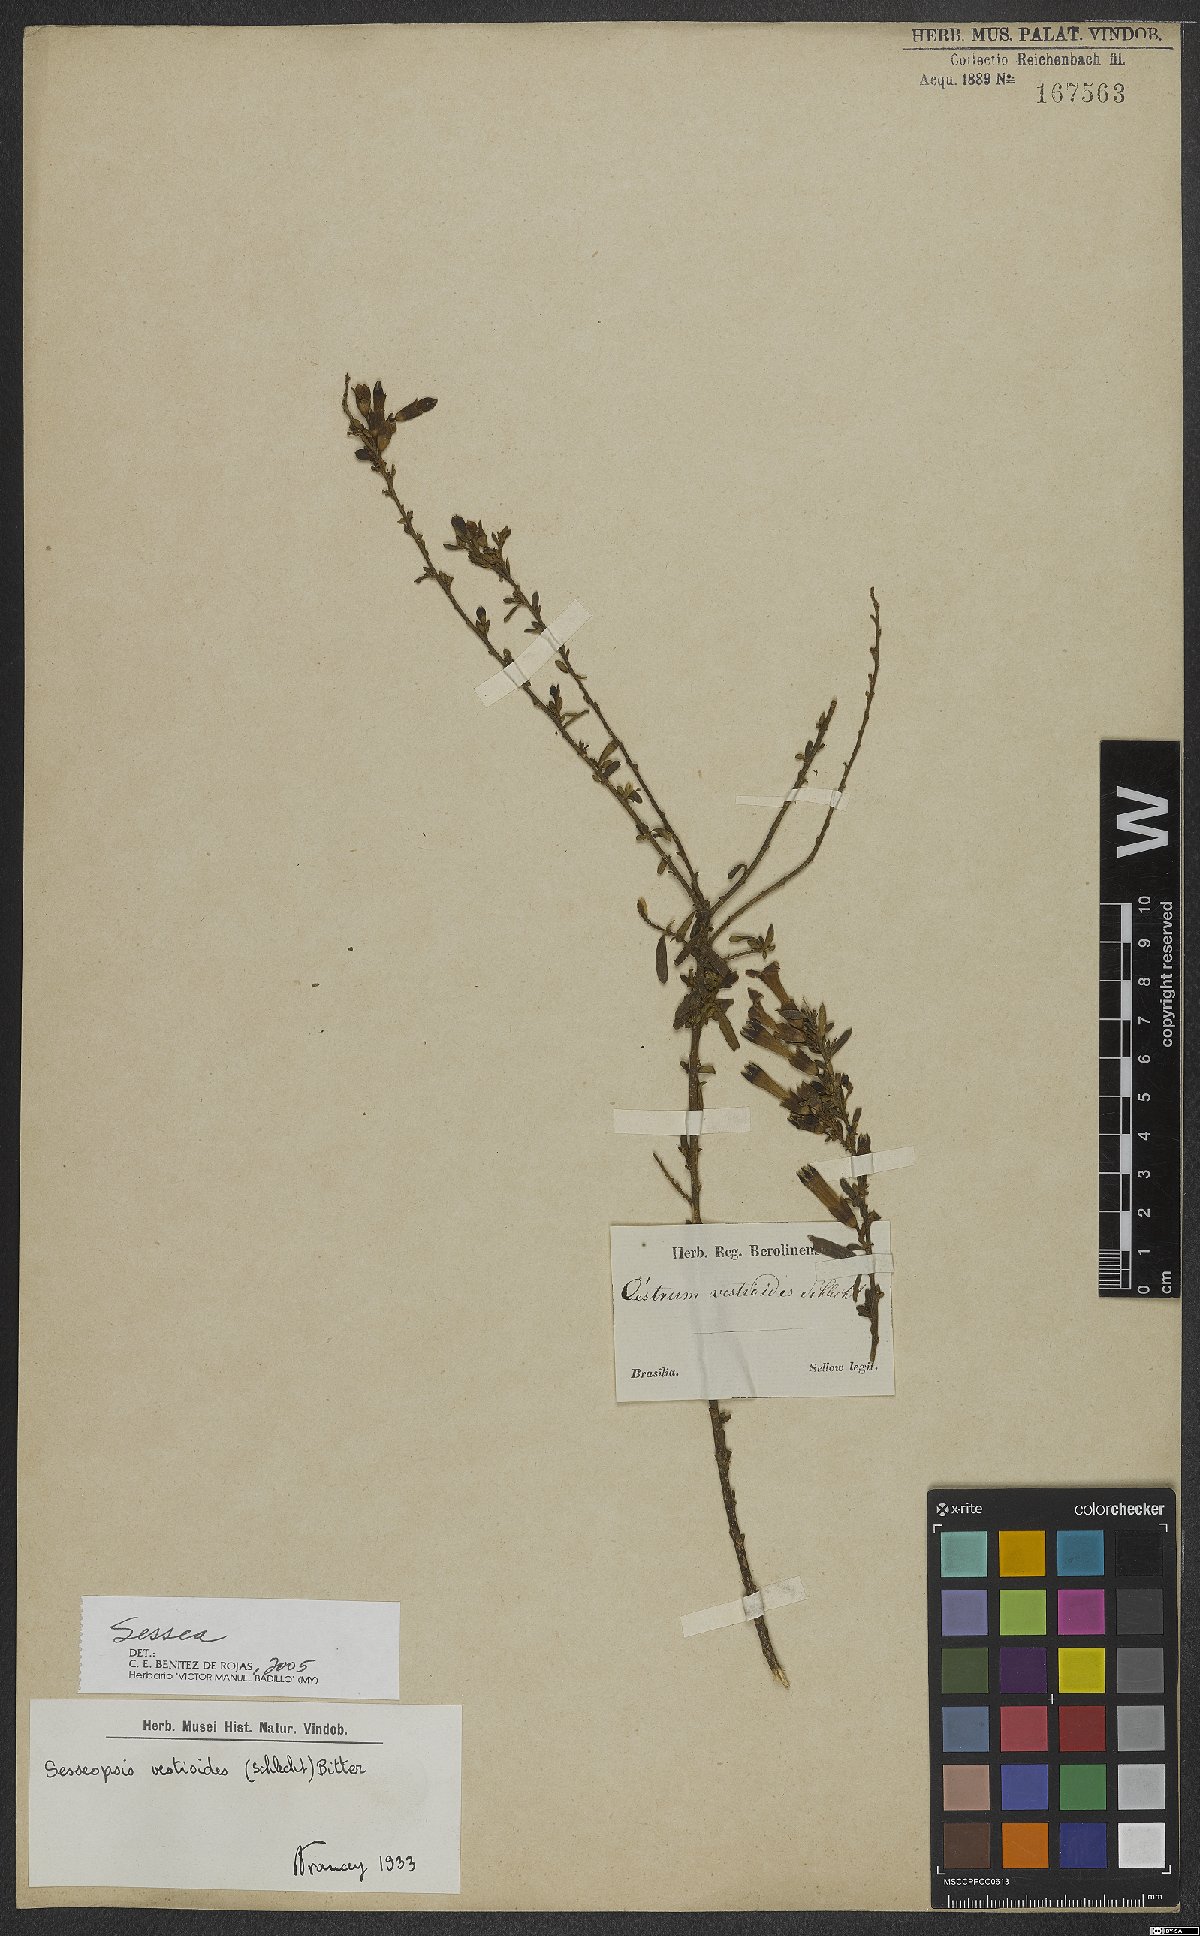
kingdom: Plantae
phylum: Tracheophyta
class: Magnoliopsida
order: Solanales
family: Solanaceae
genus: Sessea
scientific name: Sessea
